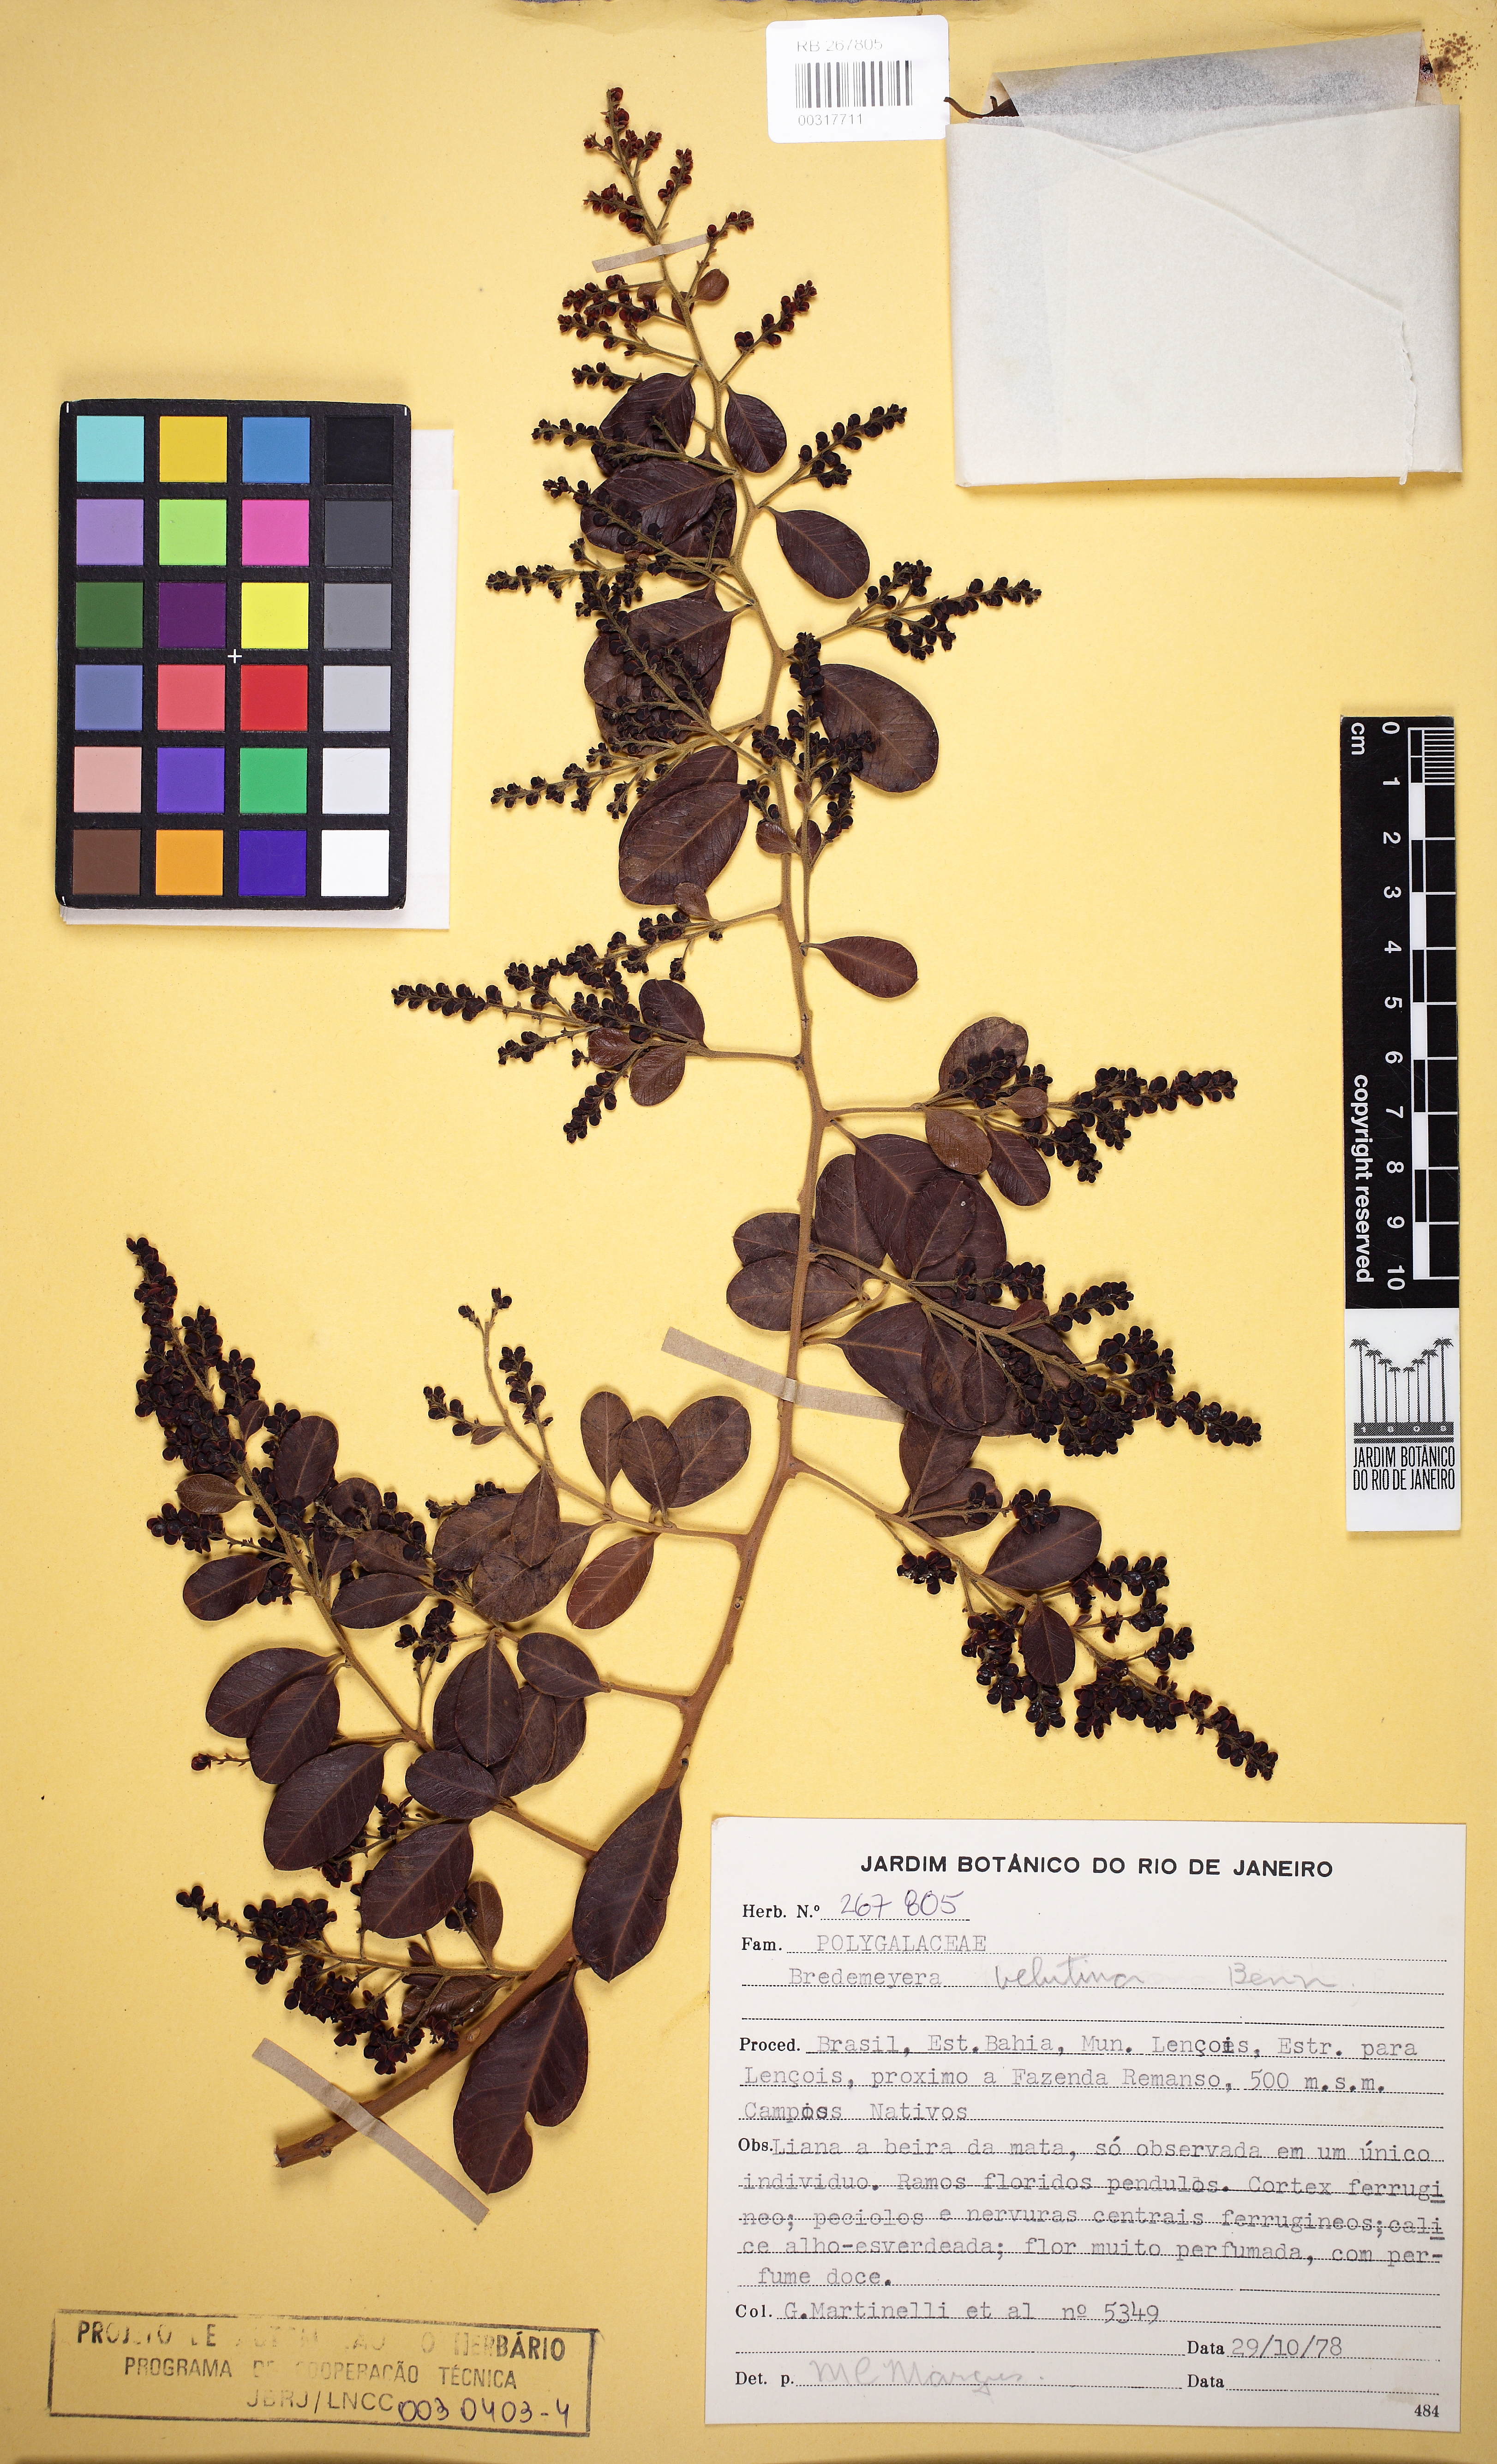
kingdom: Plantae
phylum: Tracheophyta
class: Magnoliopsida
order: Fabales
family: Polygalaceae
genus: Bredemeyera
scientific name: Bredemeyera hebeclada
